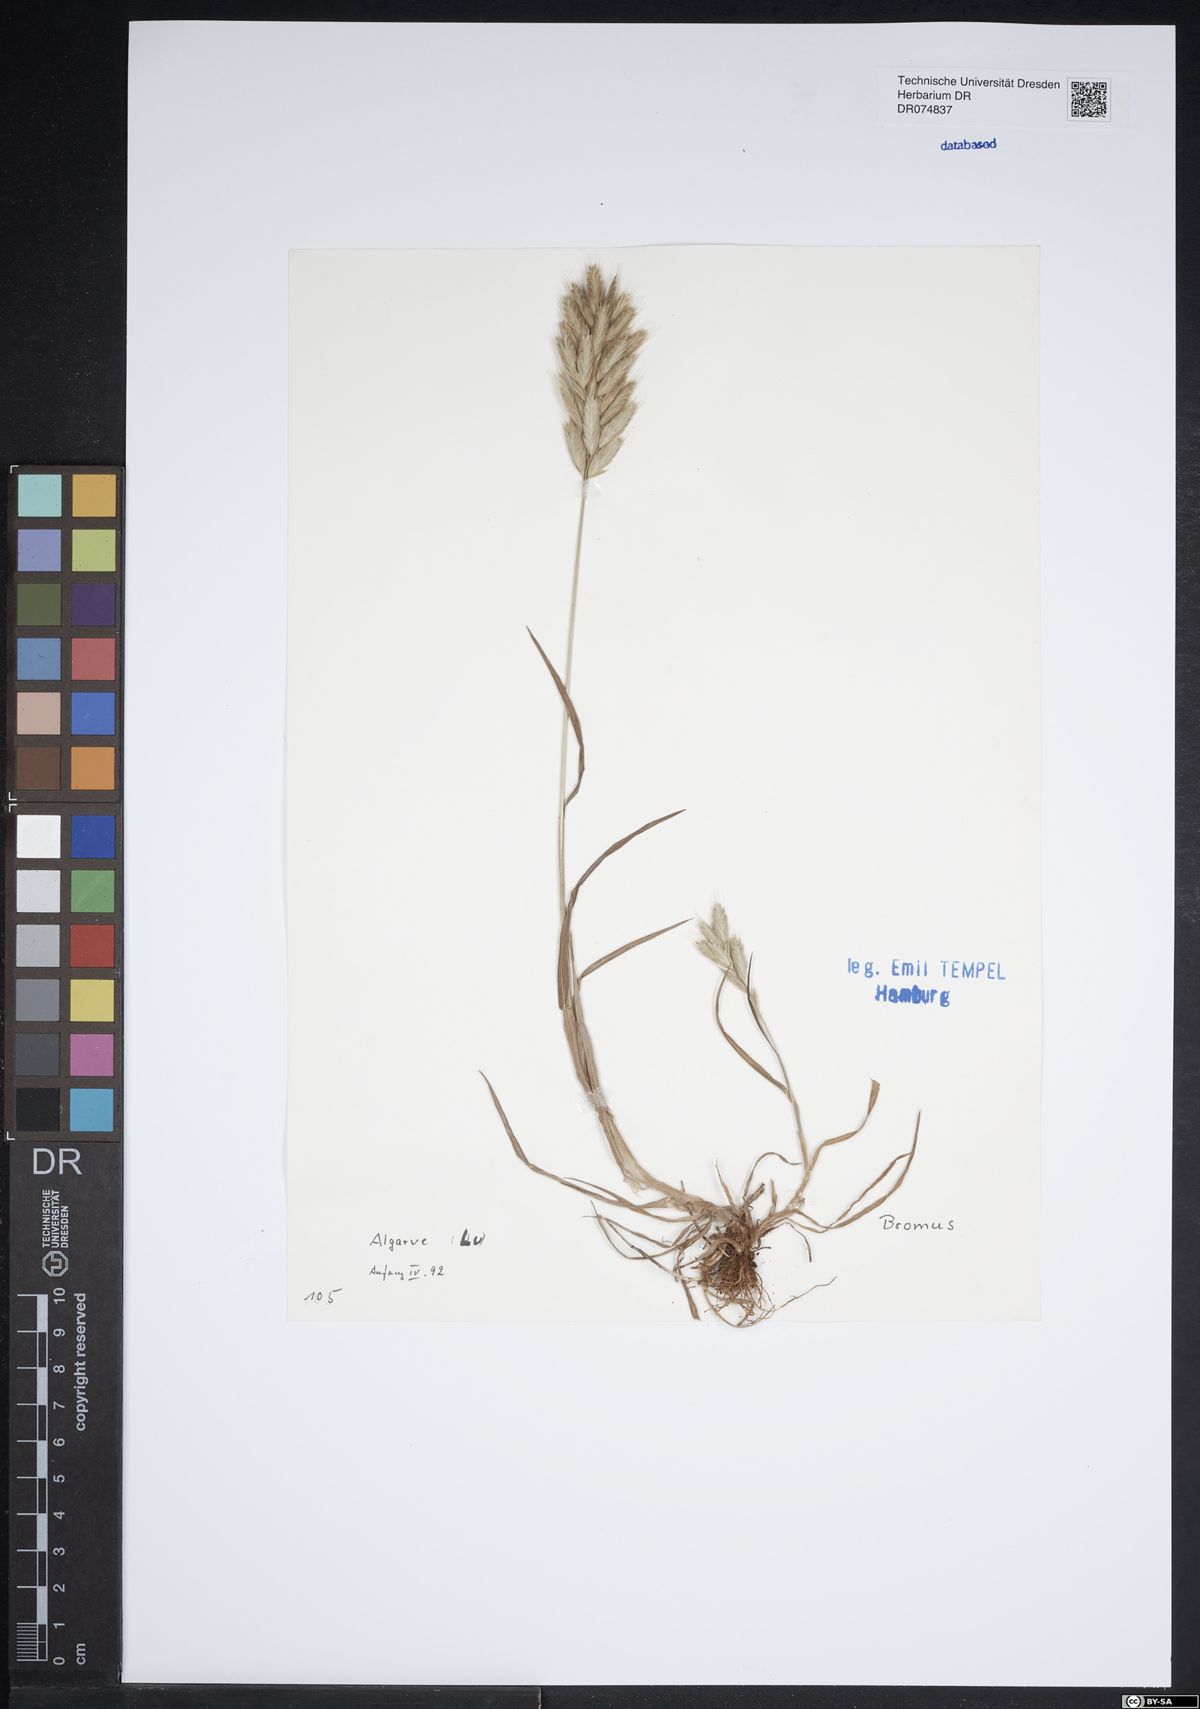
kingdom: Plantae
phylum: Tracheophyta
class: Liliopsida
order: Poales
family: Poaceae
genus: Bromus
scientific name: Bromus
